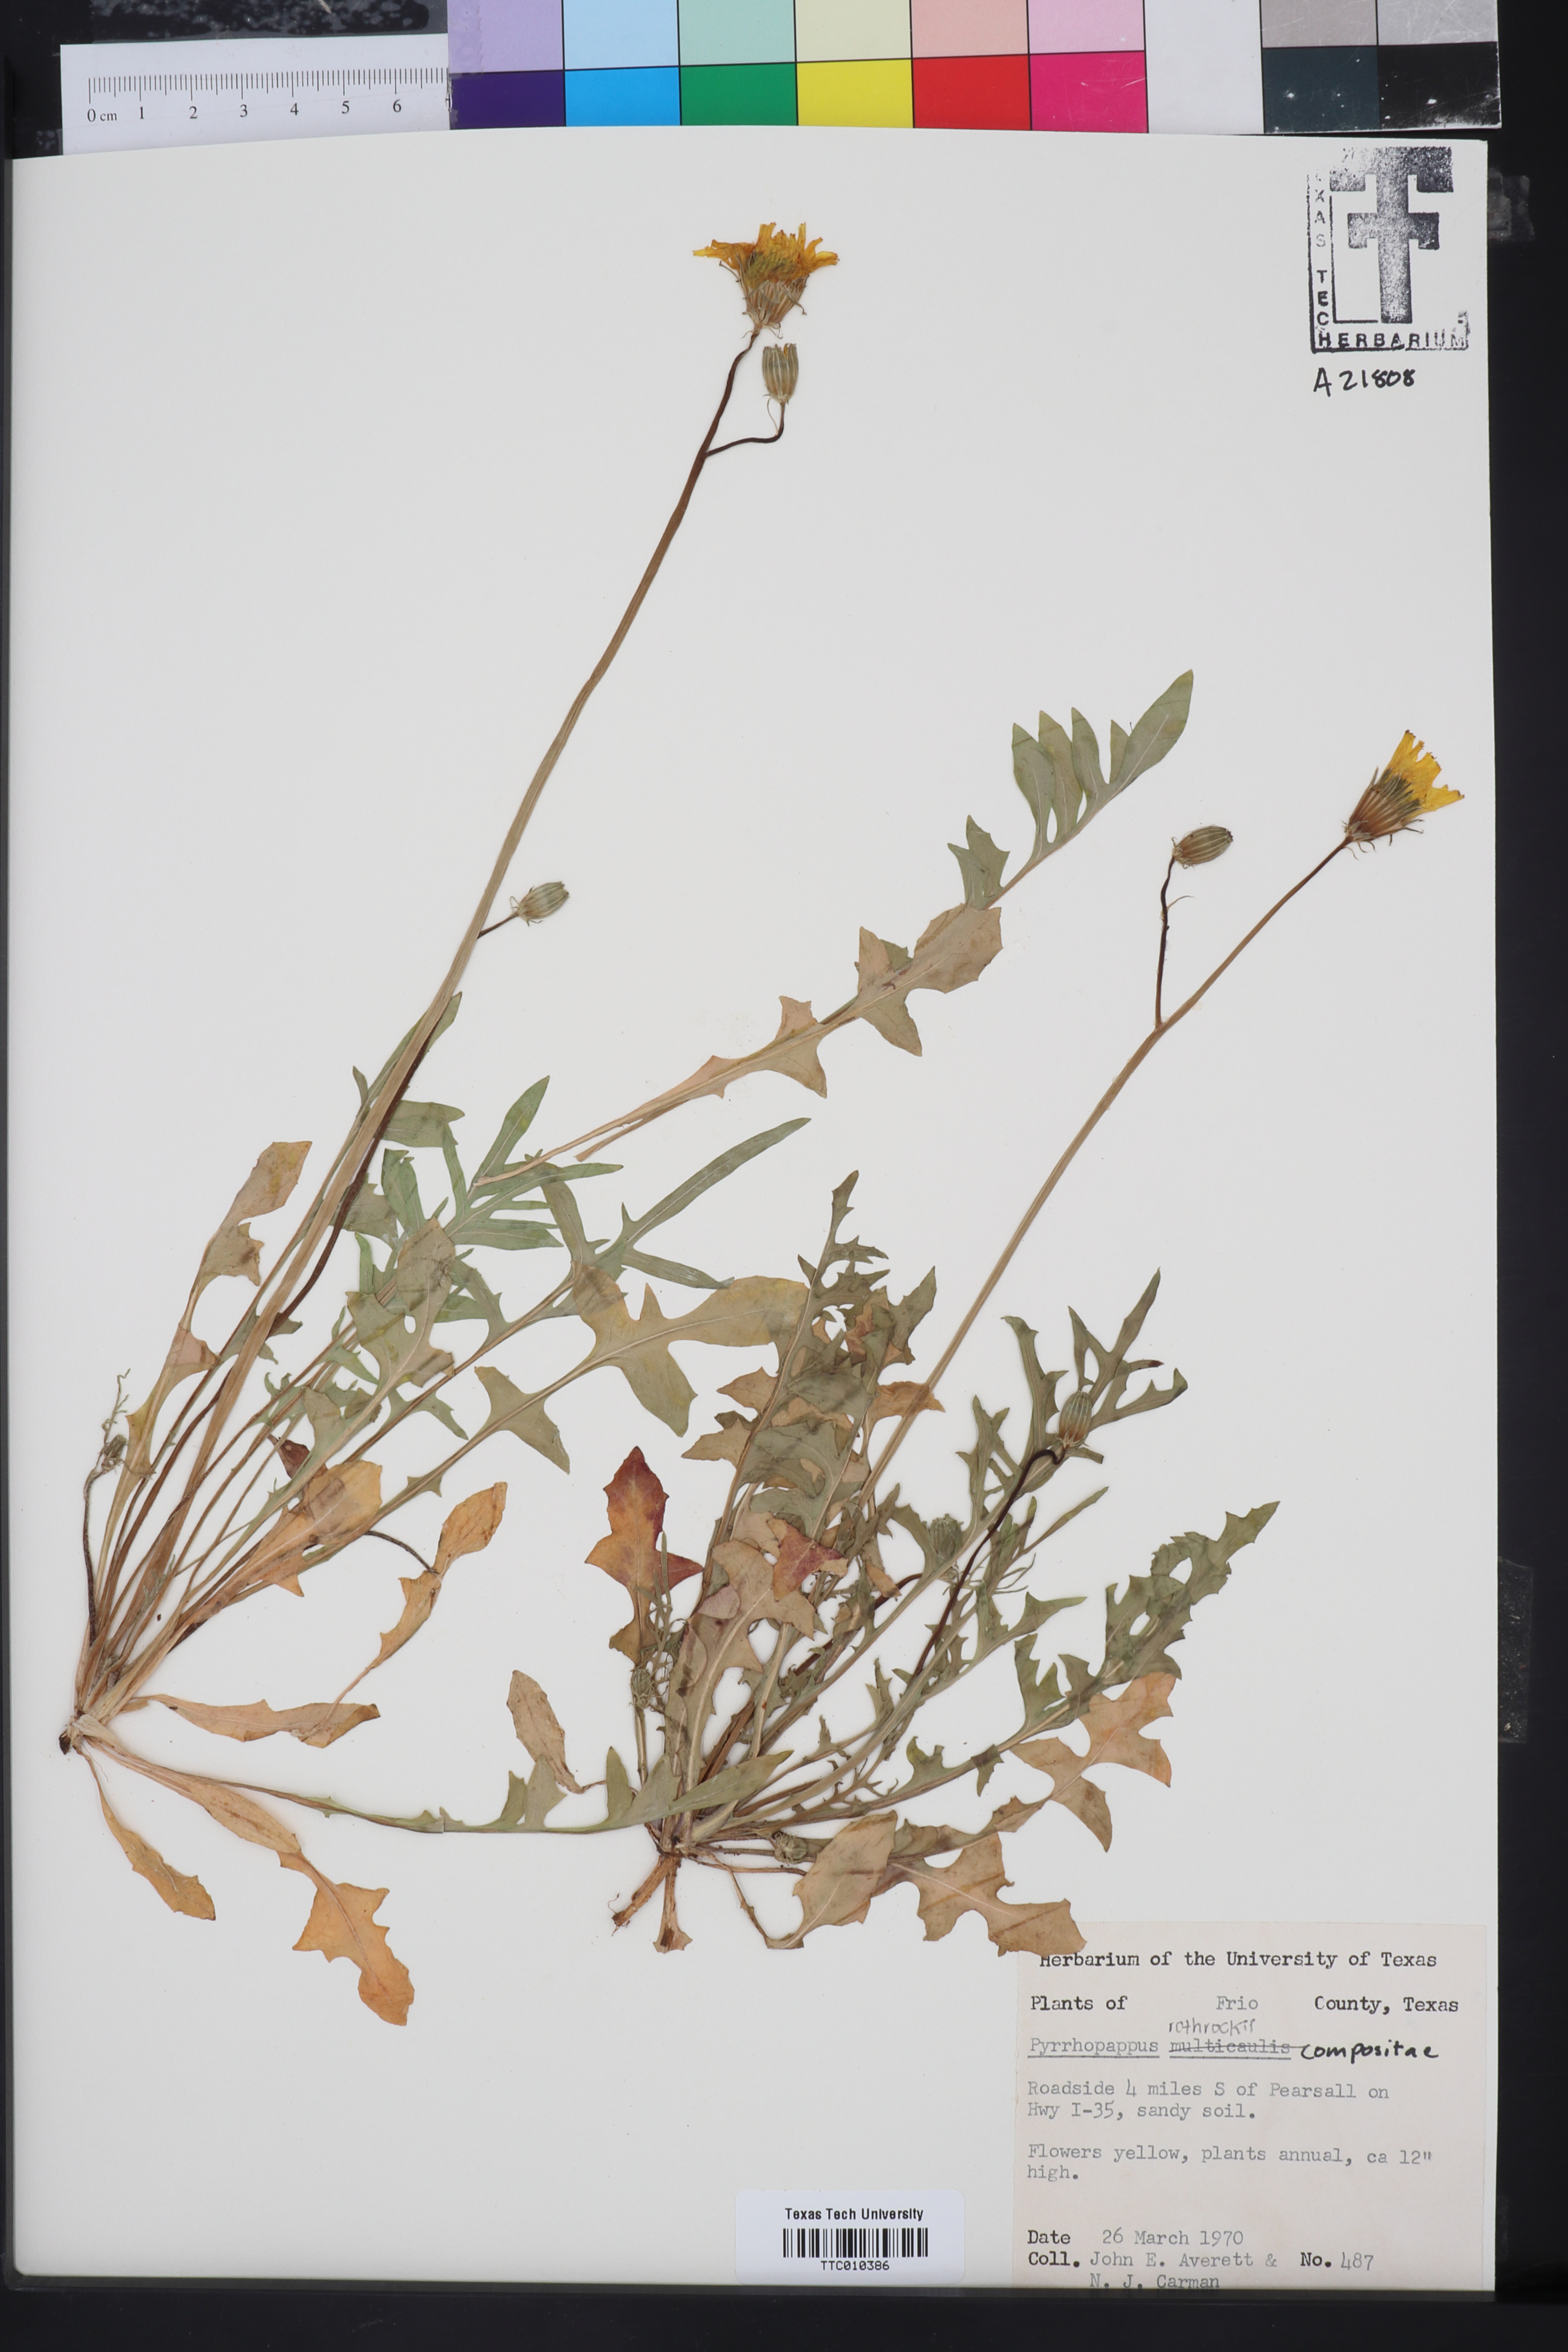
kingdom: Plantae
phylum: Tracheophyta
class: Magnoliopsida
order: Asterales
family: Asteraceae
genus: Pyrrhopappus
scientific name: Pyrrhopappus pauciflorus
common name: Texas false dandelion
